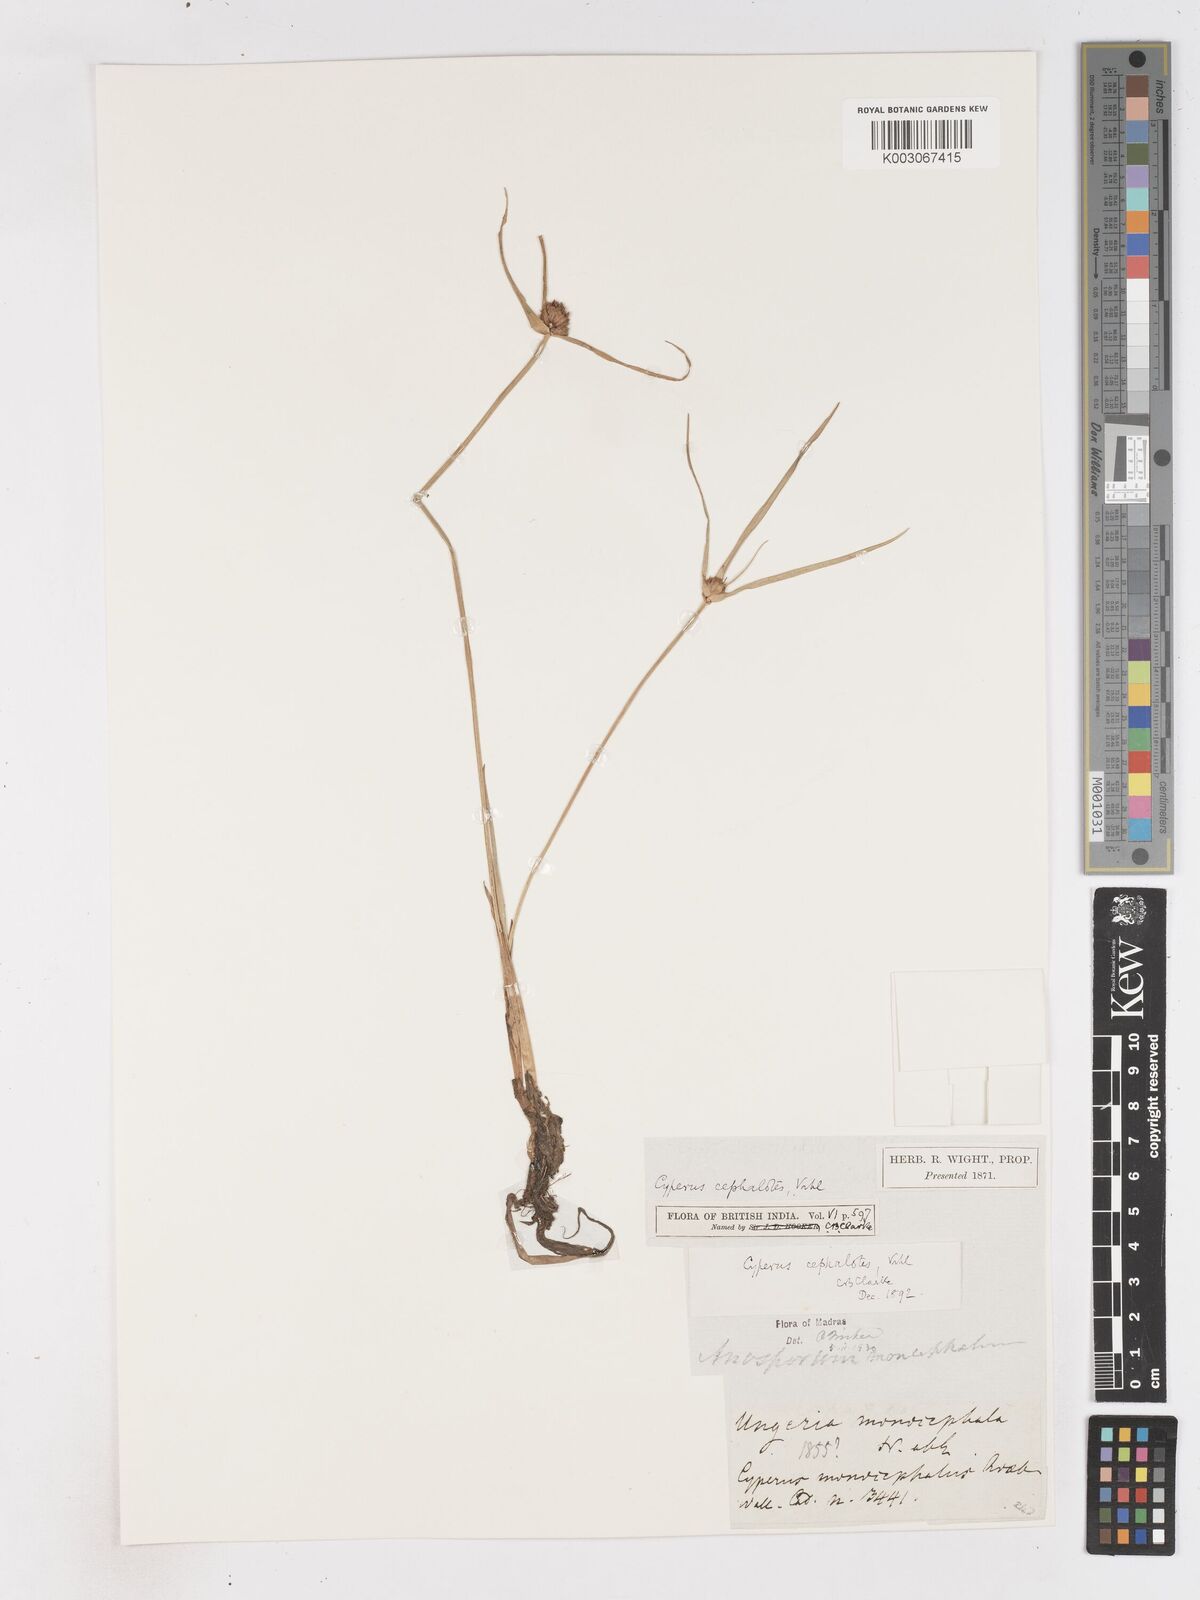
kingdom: Plantae
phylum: Tracheophyta
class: Liliopsida
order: Poales
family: Cyperaceae
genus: Cyperus
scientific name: Cyperus cephalotes
